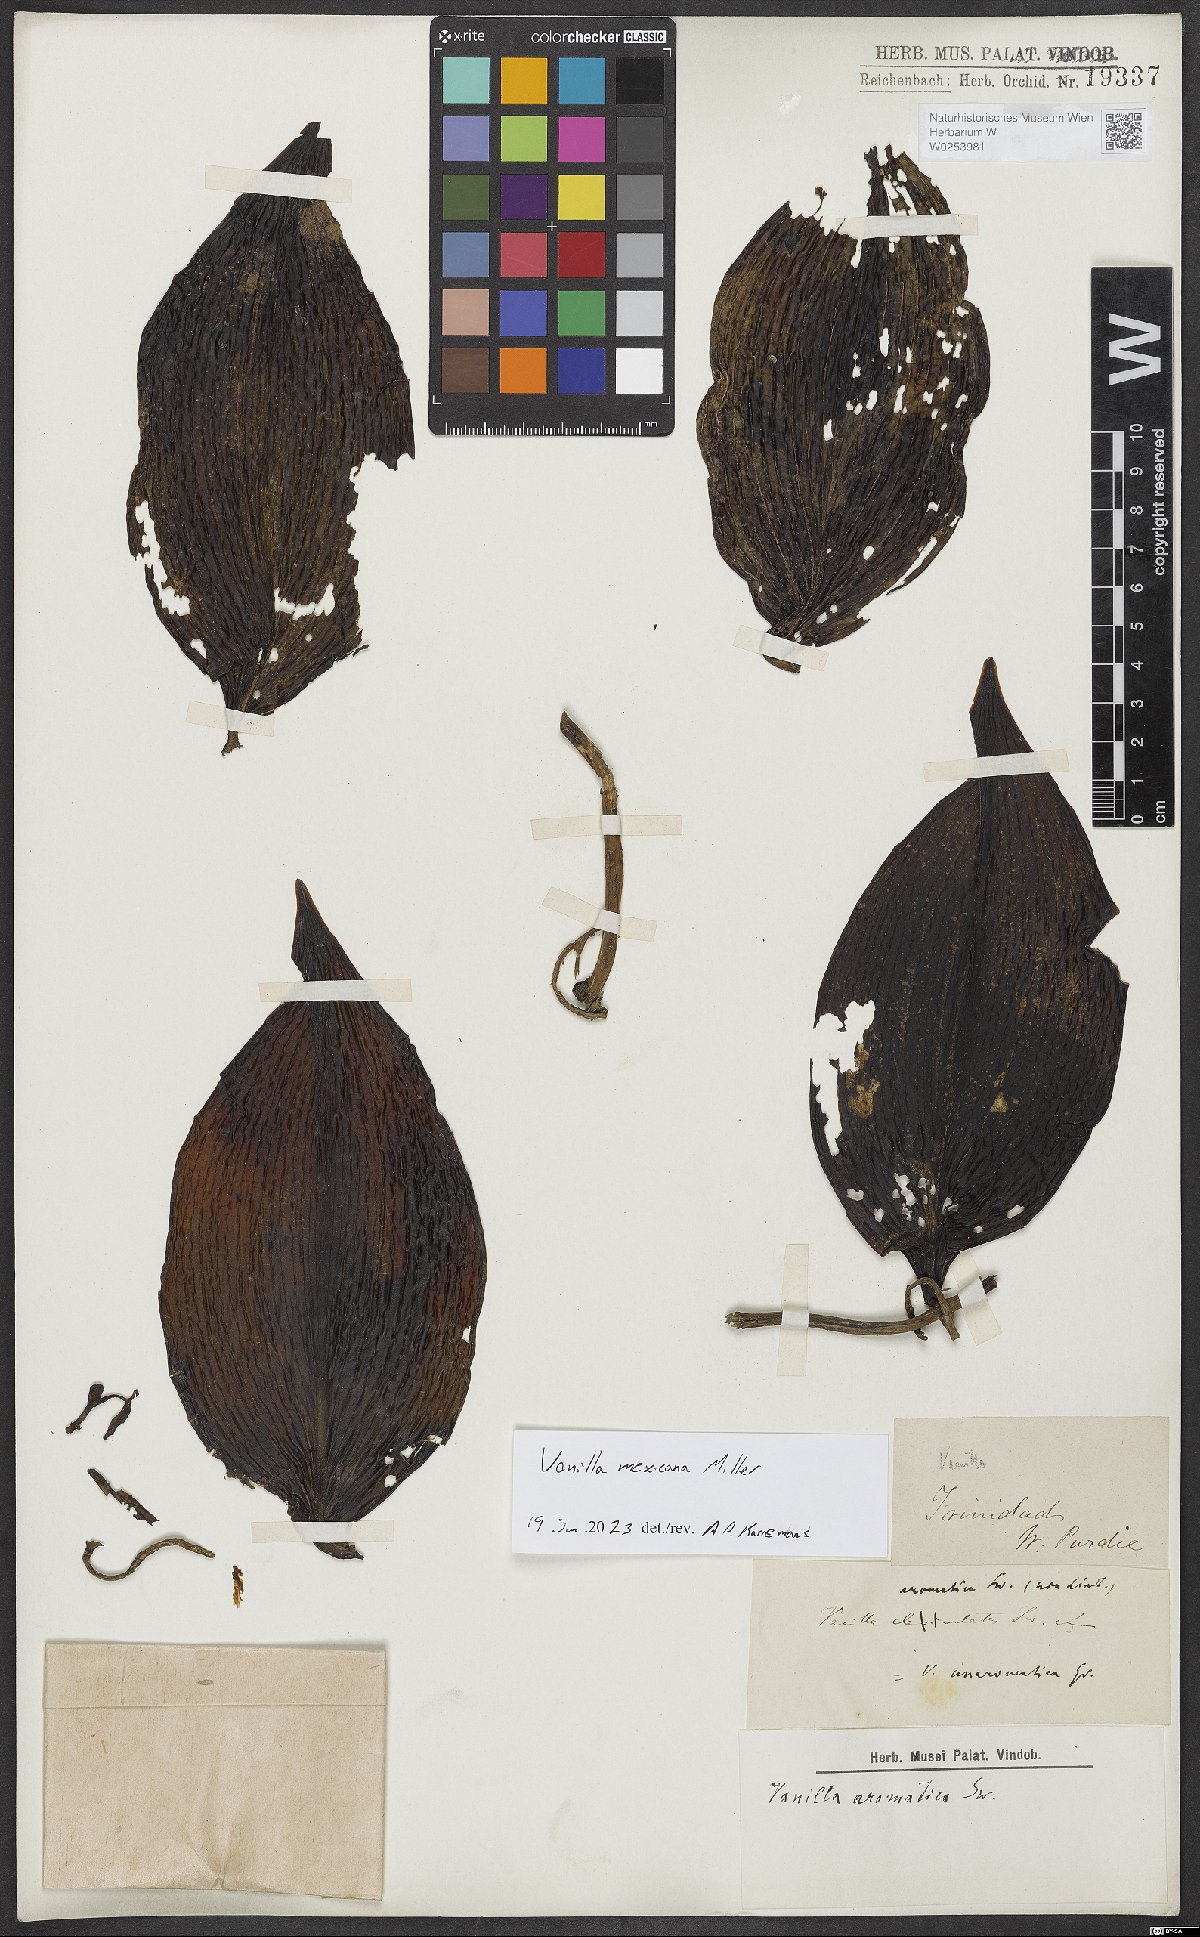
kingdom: Plantae
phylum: Tracheophyta
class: Liliopsida
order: Asparagales
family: Orchidaceae
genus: Vanilla
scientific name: Vanilla mexicana
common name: Mexican vanilla
